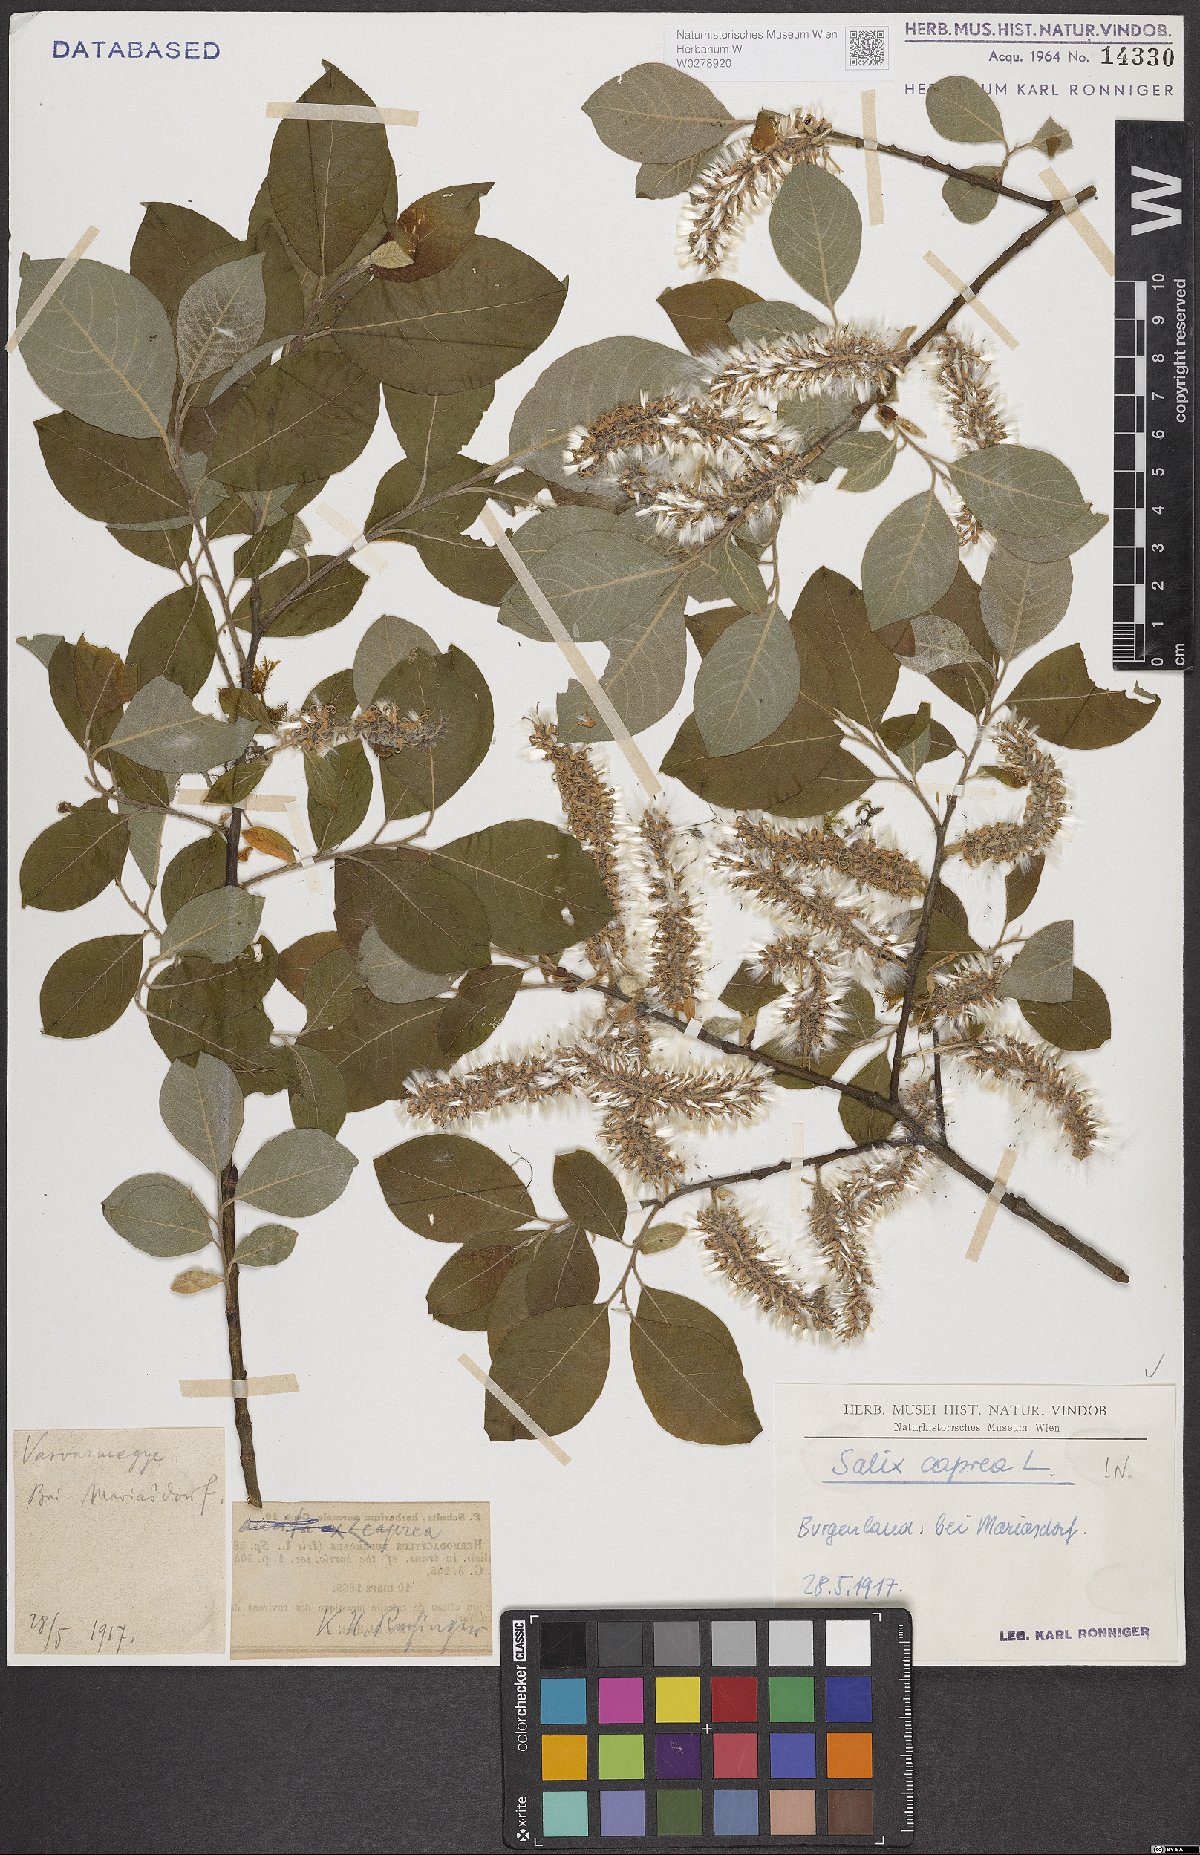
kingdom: Plantae
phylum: Tracheophyta
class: Magnoliopsida
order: Malpighiales
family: Salicaceae
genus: Salix
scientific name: Salix caprea
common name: Goat willow
